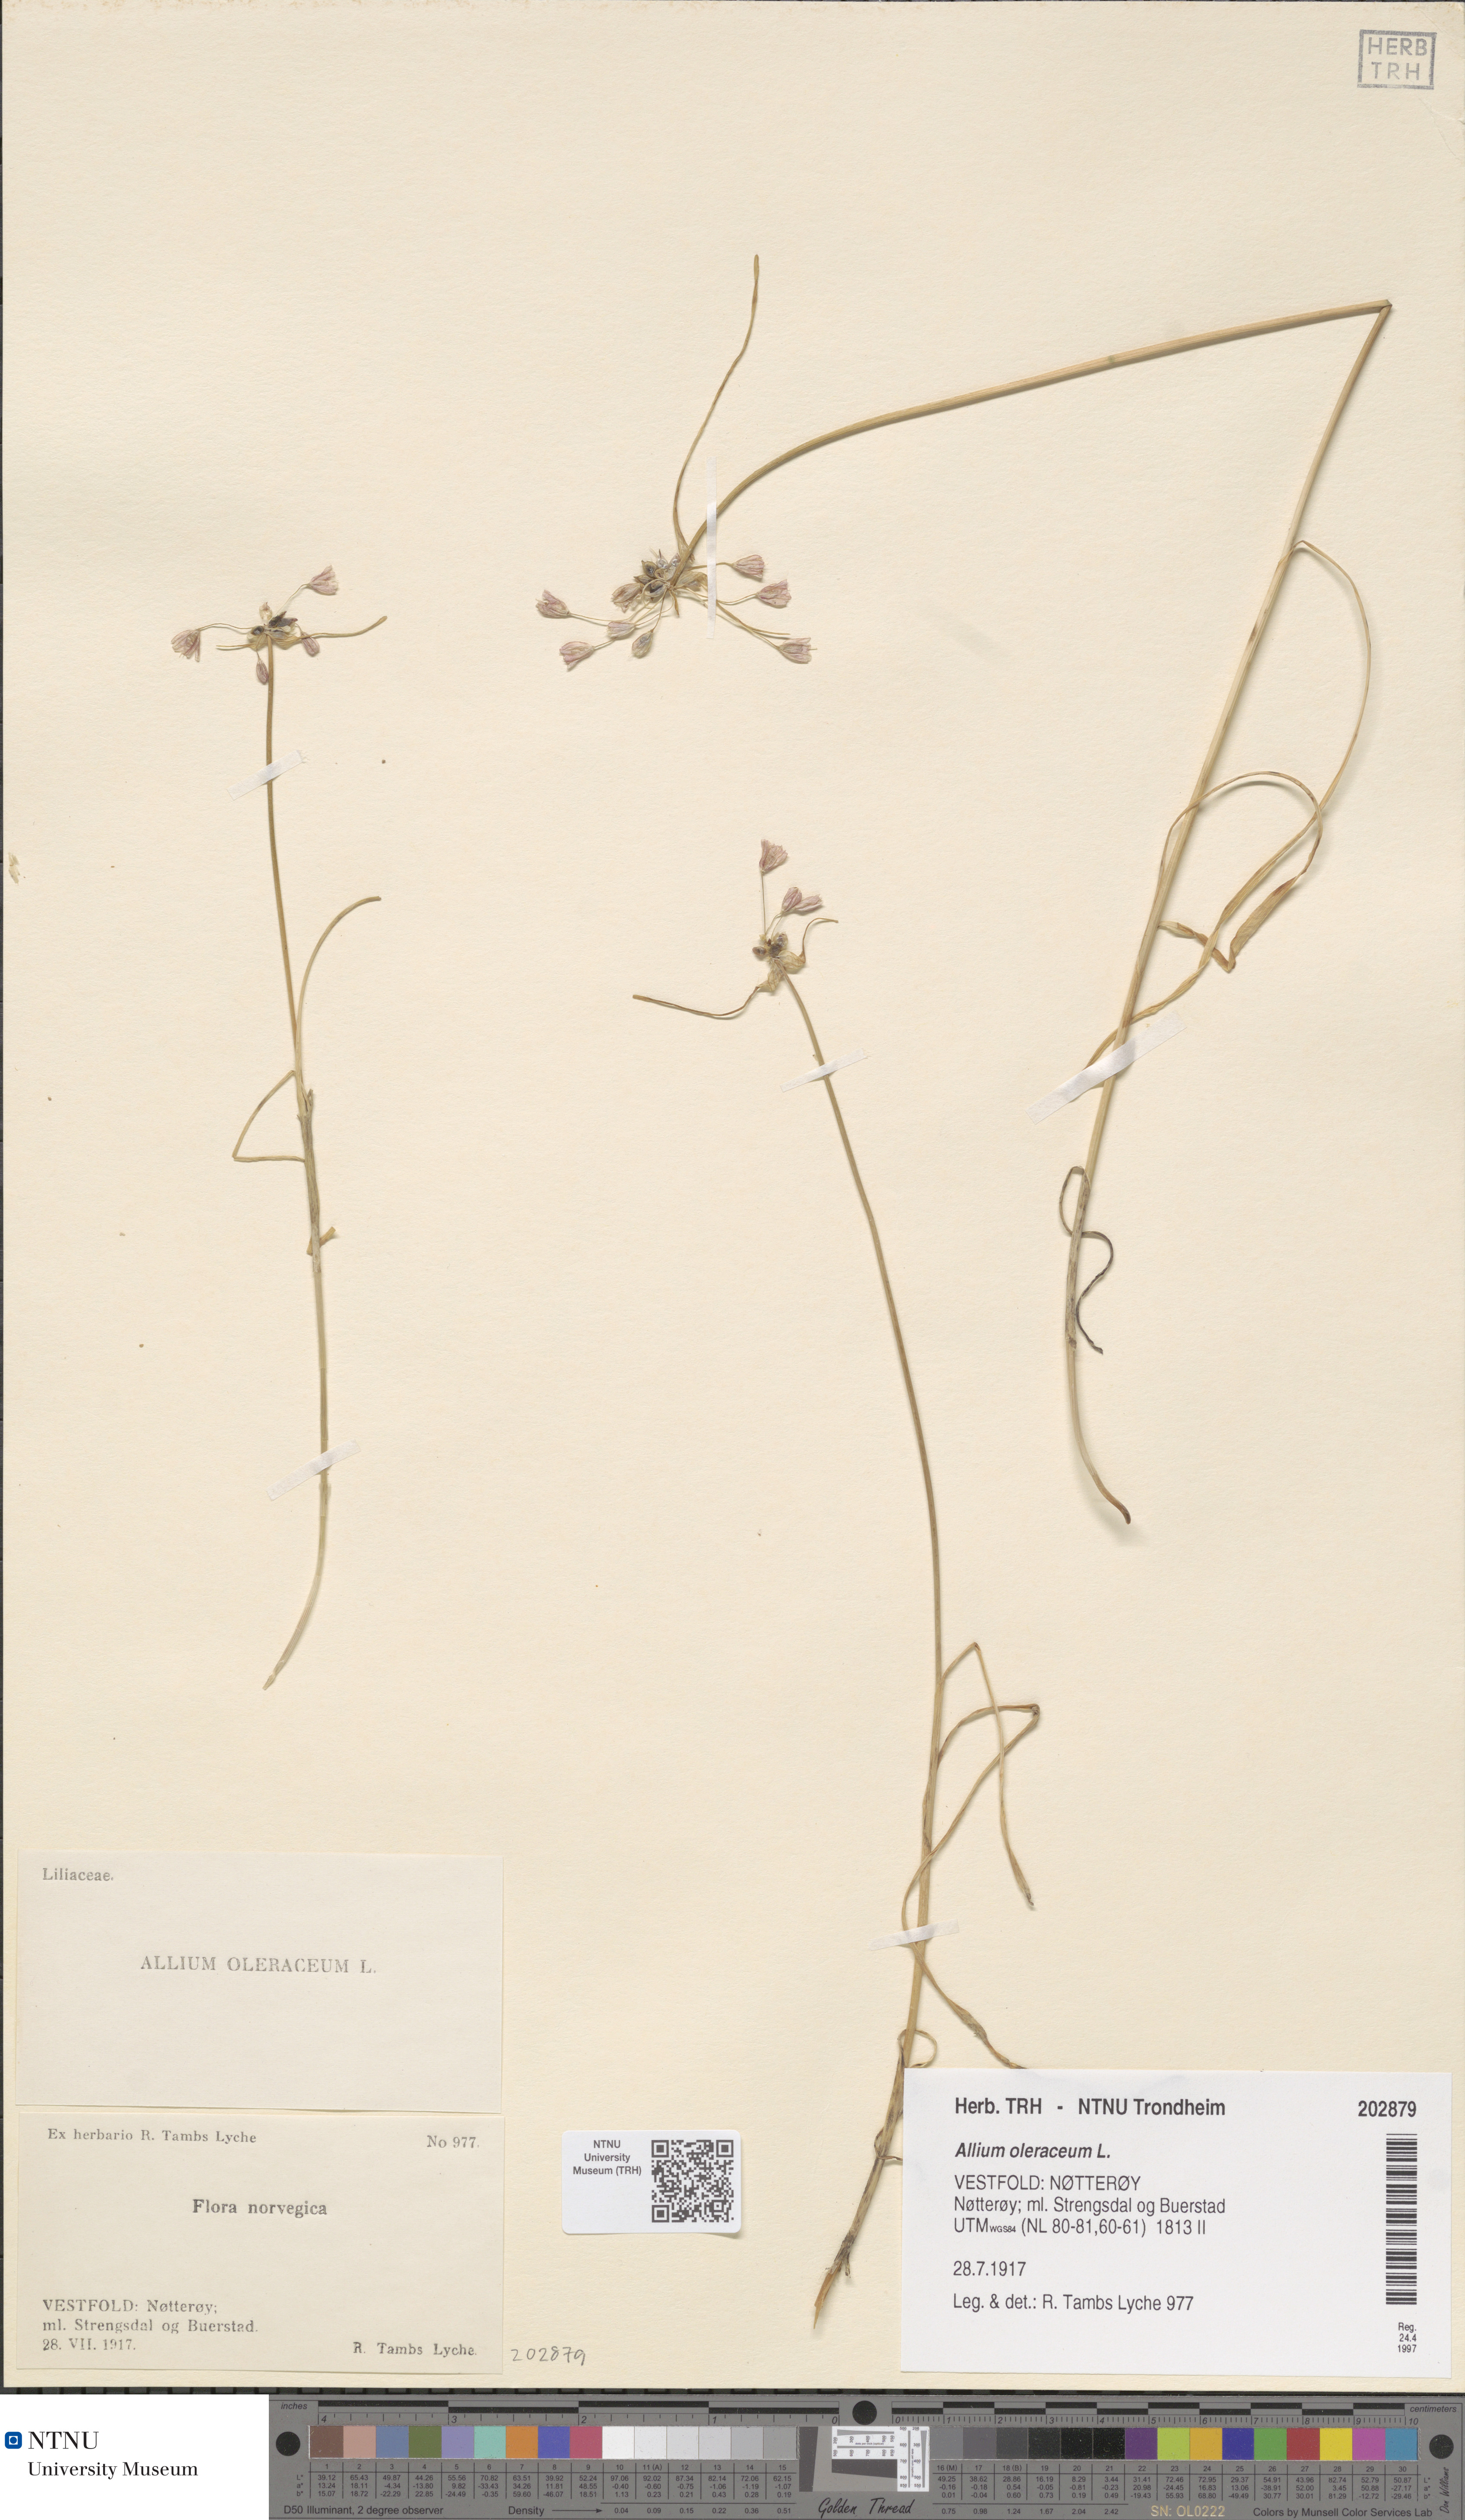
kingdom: Plantae
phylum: Tracheophyta
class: Liliopsida
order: Asparagales
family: Amaryllidaceae
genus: Allium
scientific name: Allium oleraceum
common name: Field garlic
